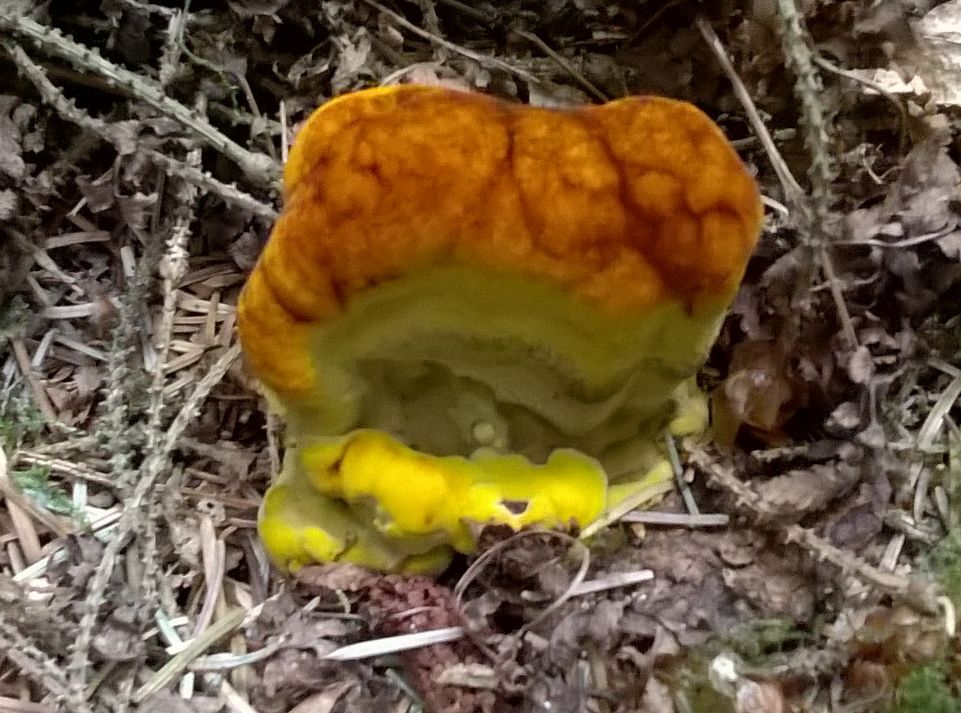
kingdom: Fungi
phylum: Basidiomycota
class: Agaricomycetes
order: Polyporales
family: Laetiporaceae
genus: Phaeolus
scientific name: Phaeolus schweinitzii
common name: brunporesvamp
